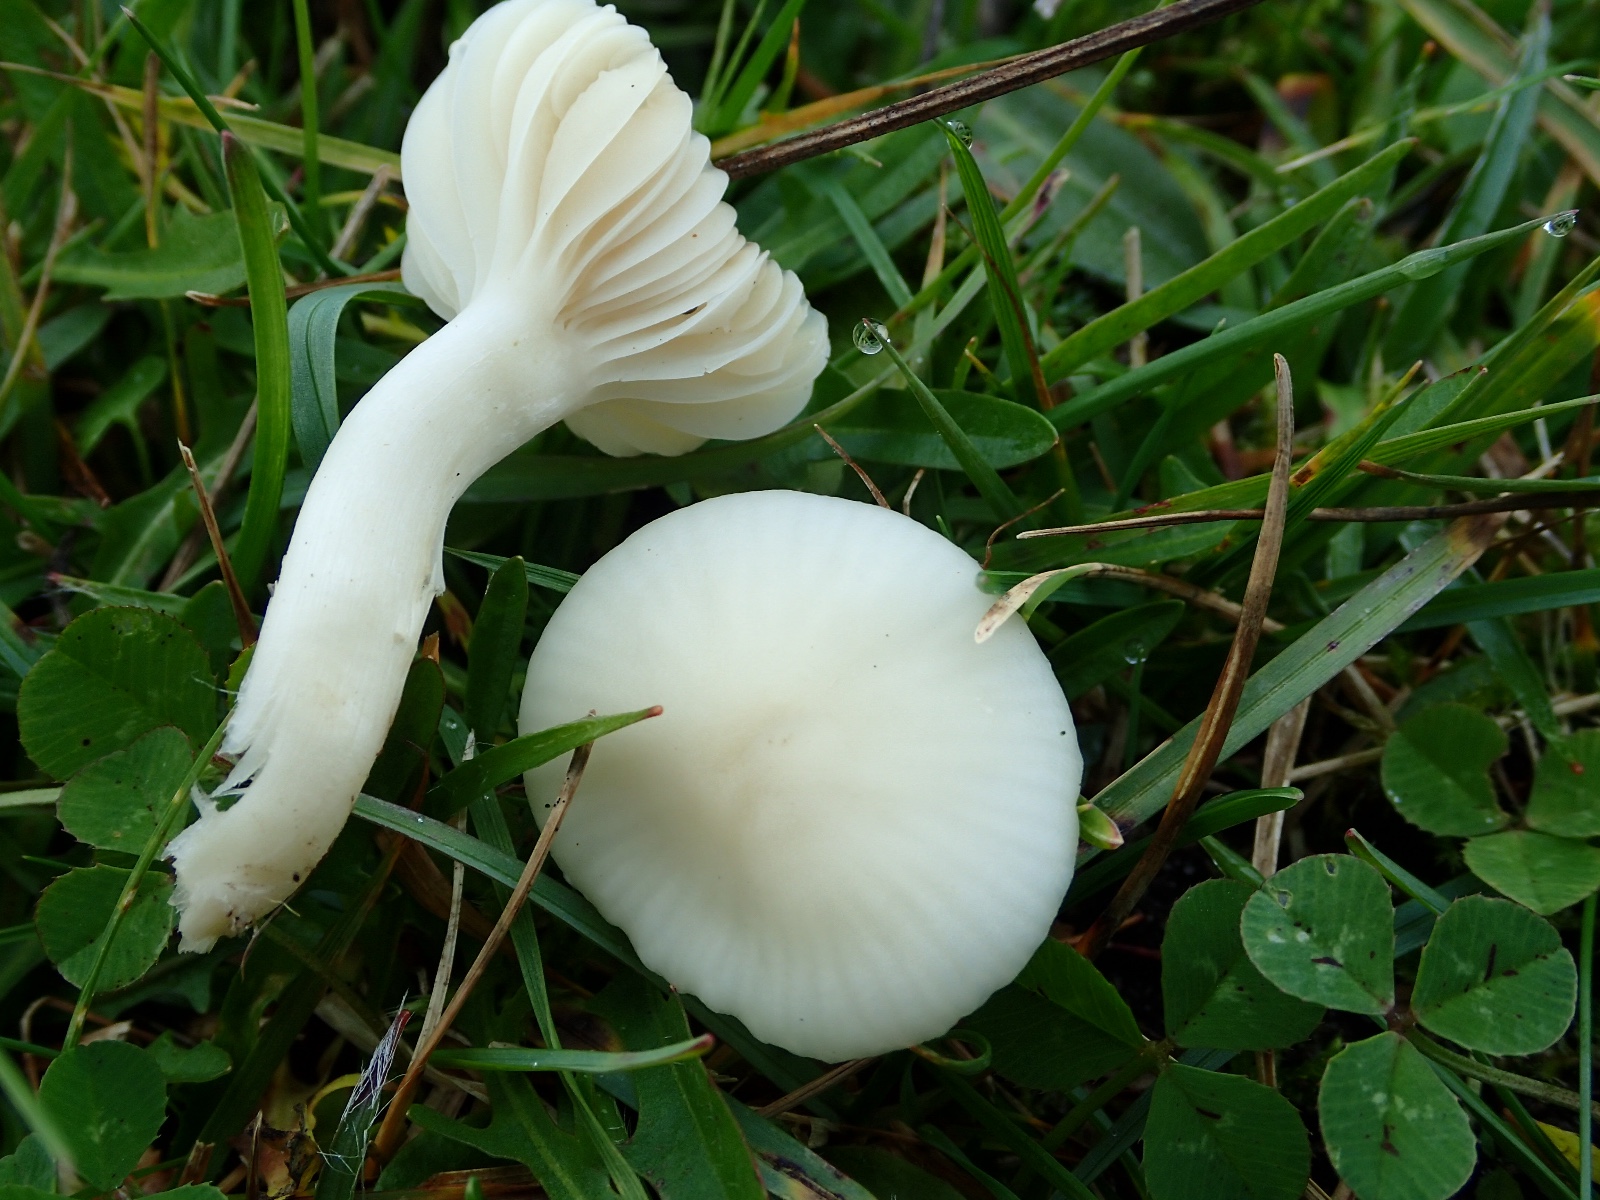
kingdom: Fungi
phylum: Basidiomycota
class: Agaricomycetes
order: Agaricales
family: Hygrophoraceae
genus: Cuphophyllus
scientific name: Cuphophyllus virgineus
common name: snehvid vokshat
